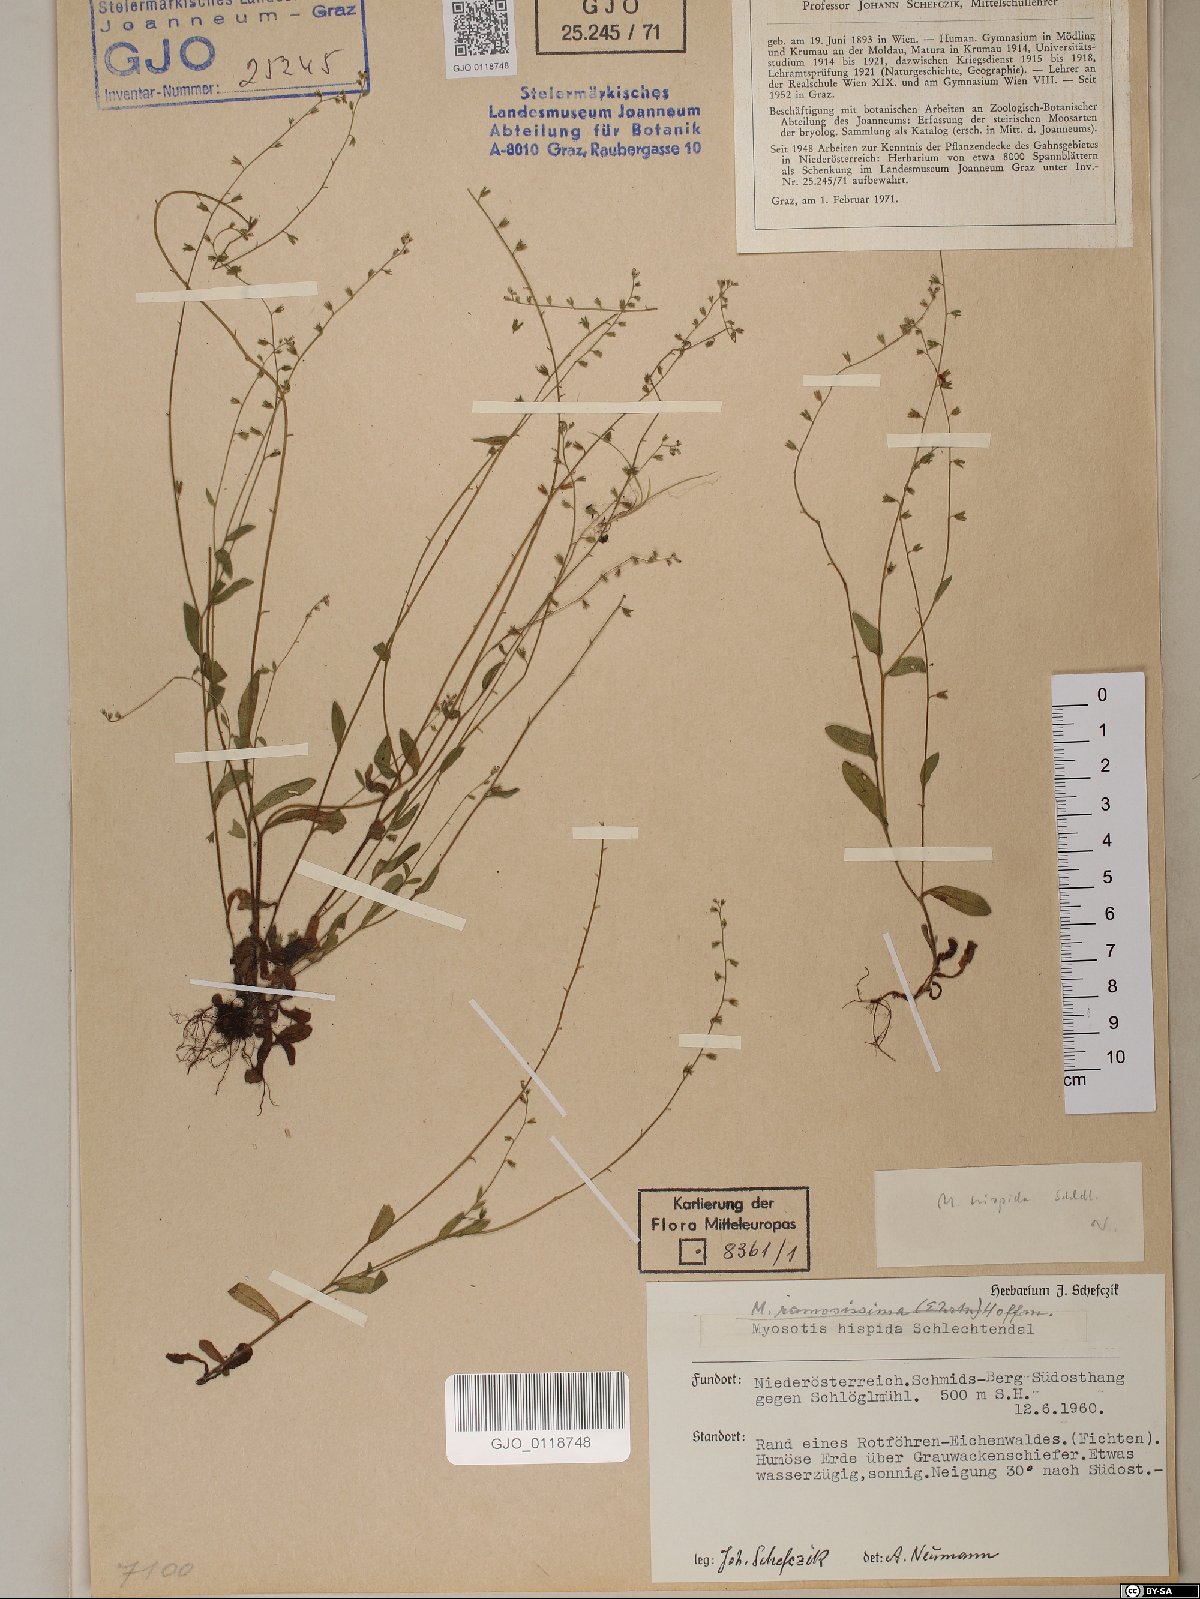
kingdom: Plantae
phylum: Tracheophyta
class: Magnoliopsida
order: Boraginales
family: Boraginaceae
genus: Myosotis
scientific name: Myosotis ramosissima
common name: Early forget-me-not
